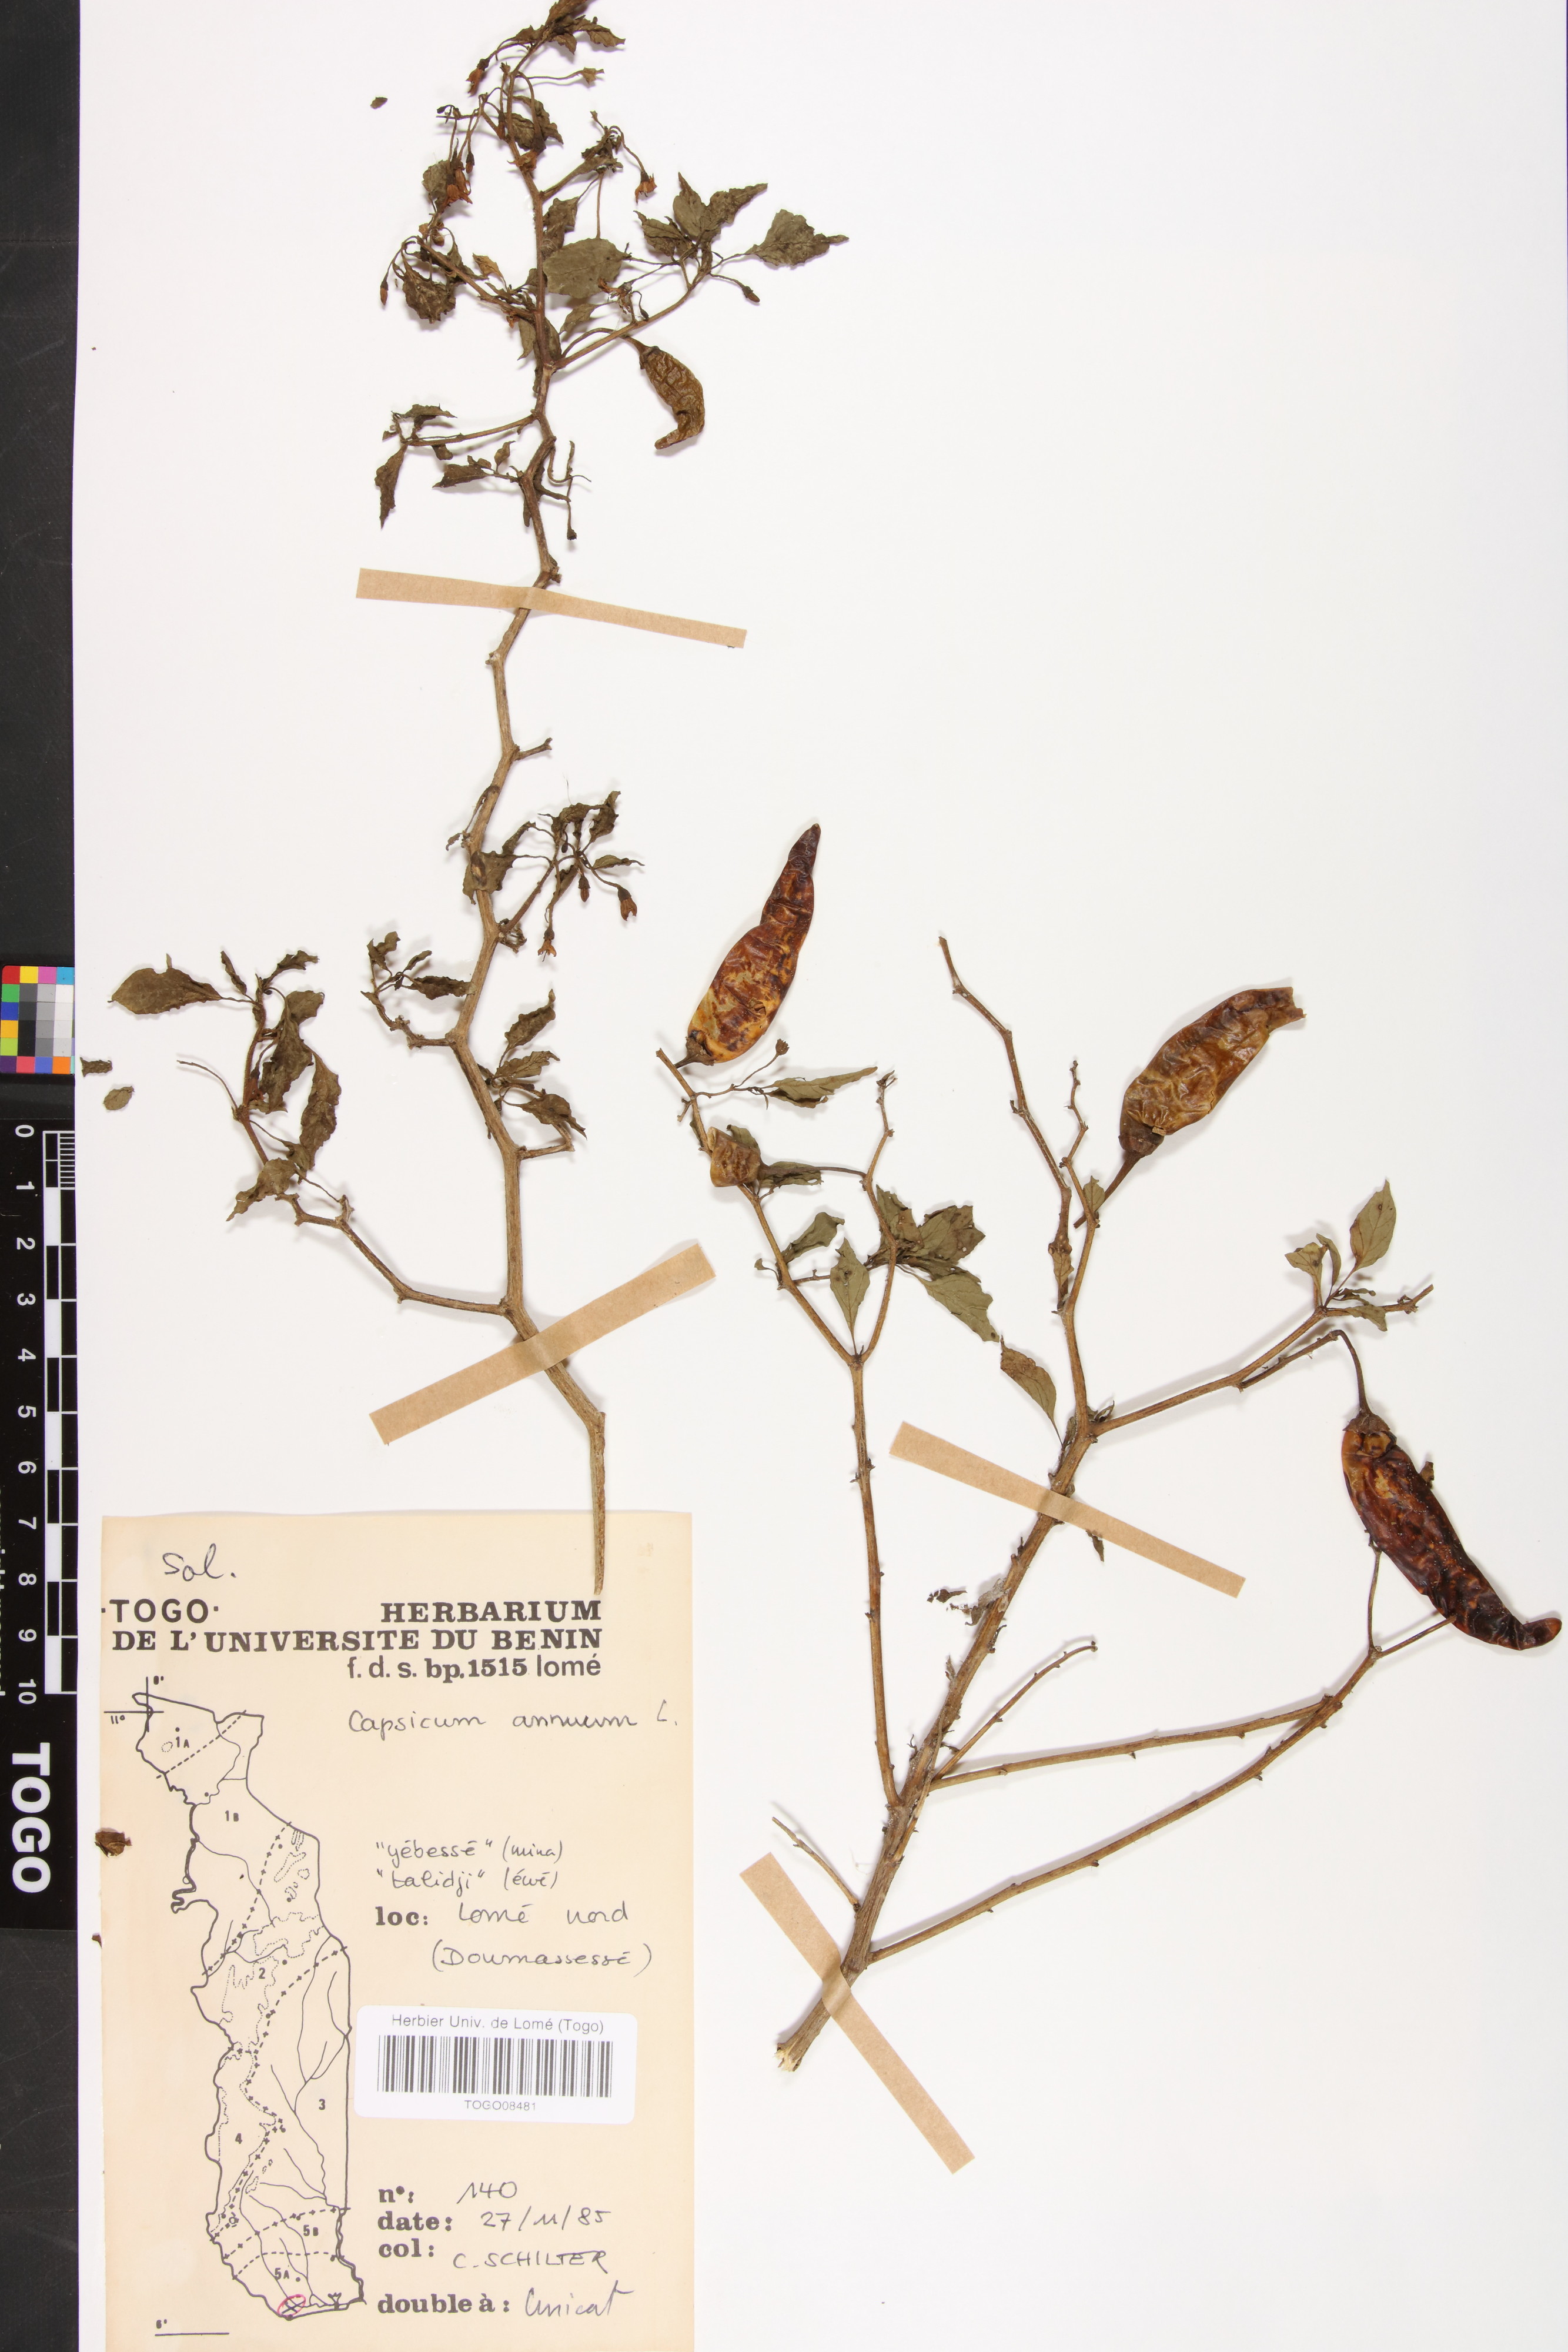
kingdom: Plantae
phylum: Tracheophyta
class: Magnoliopsida
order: Solanales
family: Solanaceae
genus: Capsicum
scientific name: Capsicum annuum
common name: Sweet pepper
